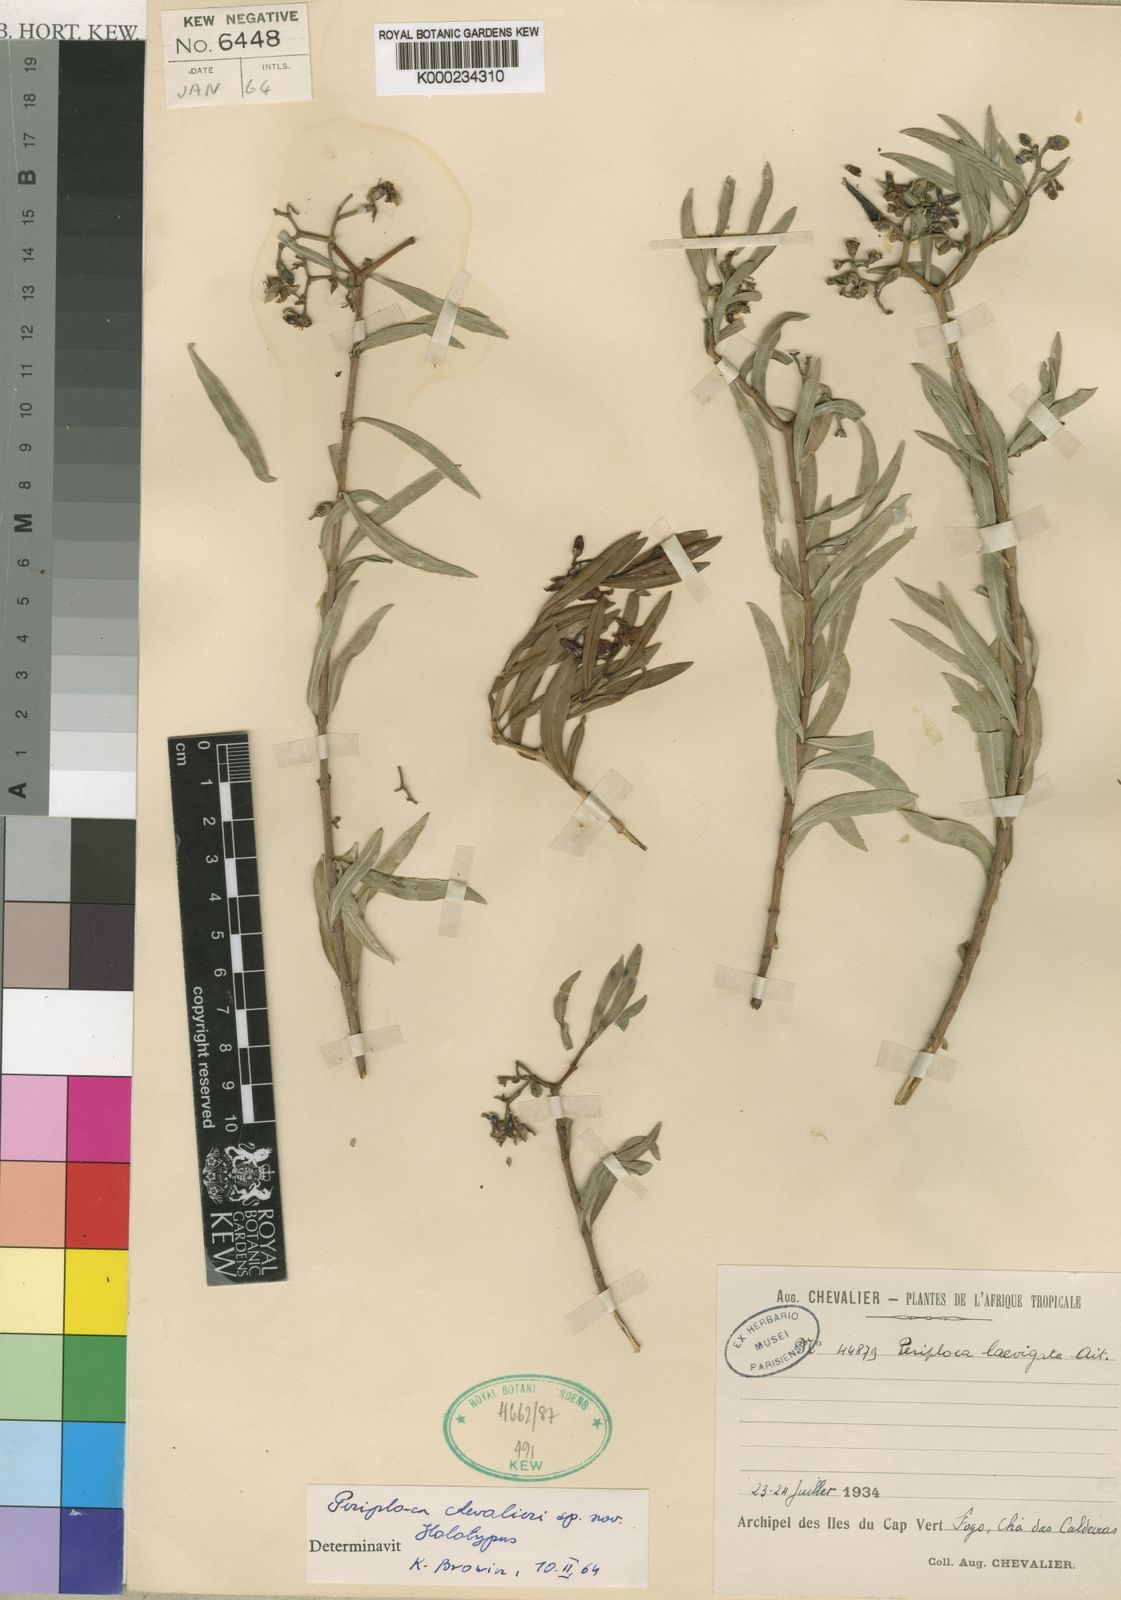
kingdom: Plantae
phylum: Tracheophyta
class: Magnoliopsida
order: Gentianales
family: Apocynaceae
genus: Periploca
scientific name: Periploca laevigata
